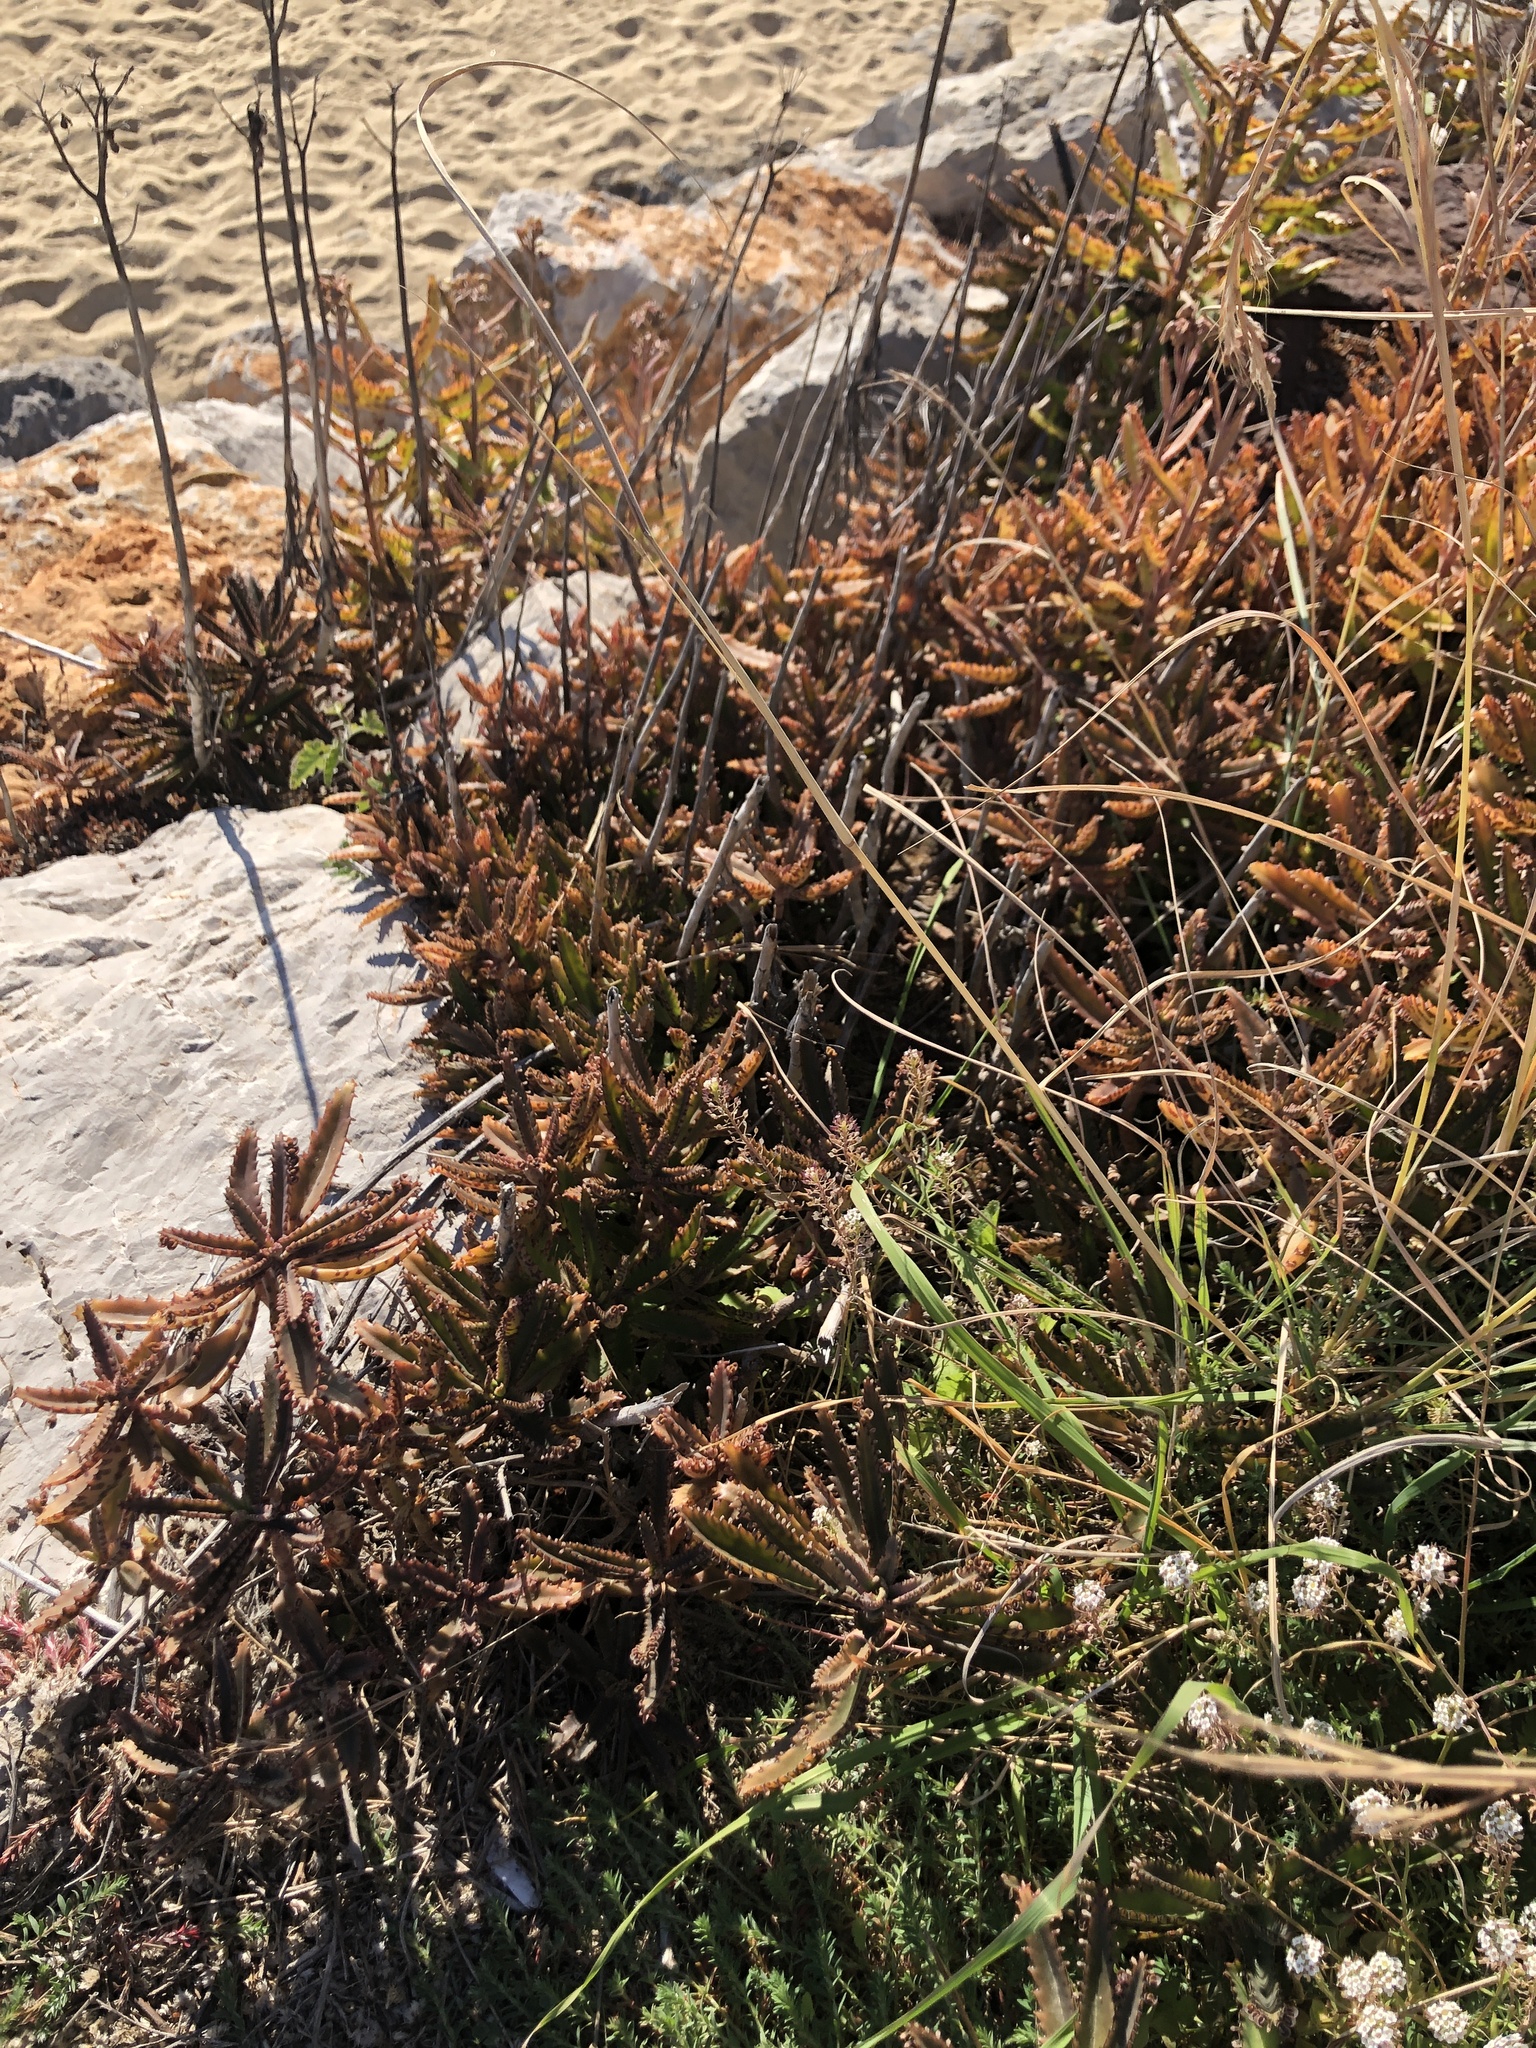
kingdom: Plantae
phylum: Tracheophyta
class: Magnoliopsida
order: Saxifragales
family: Crassulaceae
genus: Kalanchoe
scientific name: Kalanchoe daigremontiana
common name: Devil's backbone
